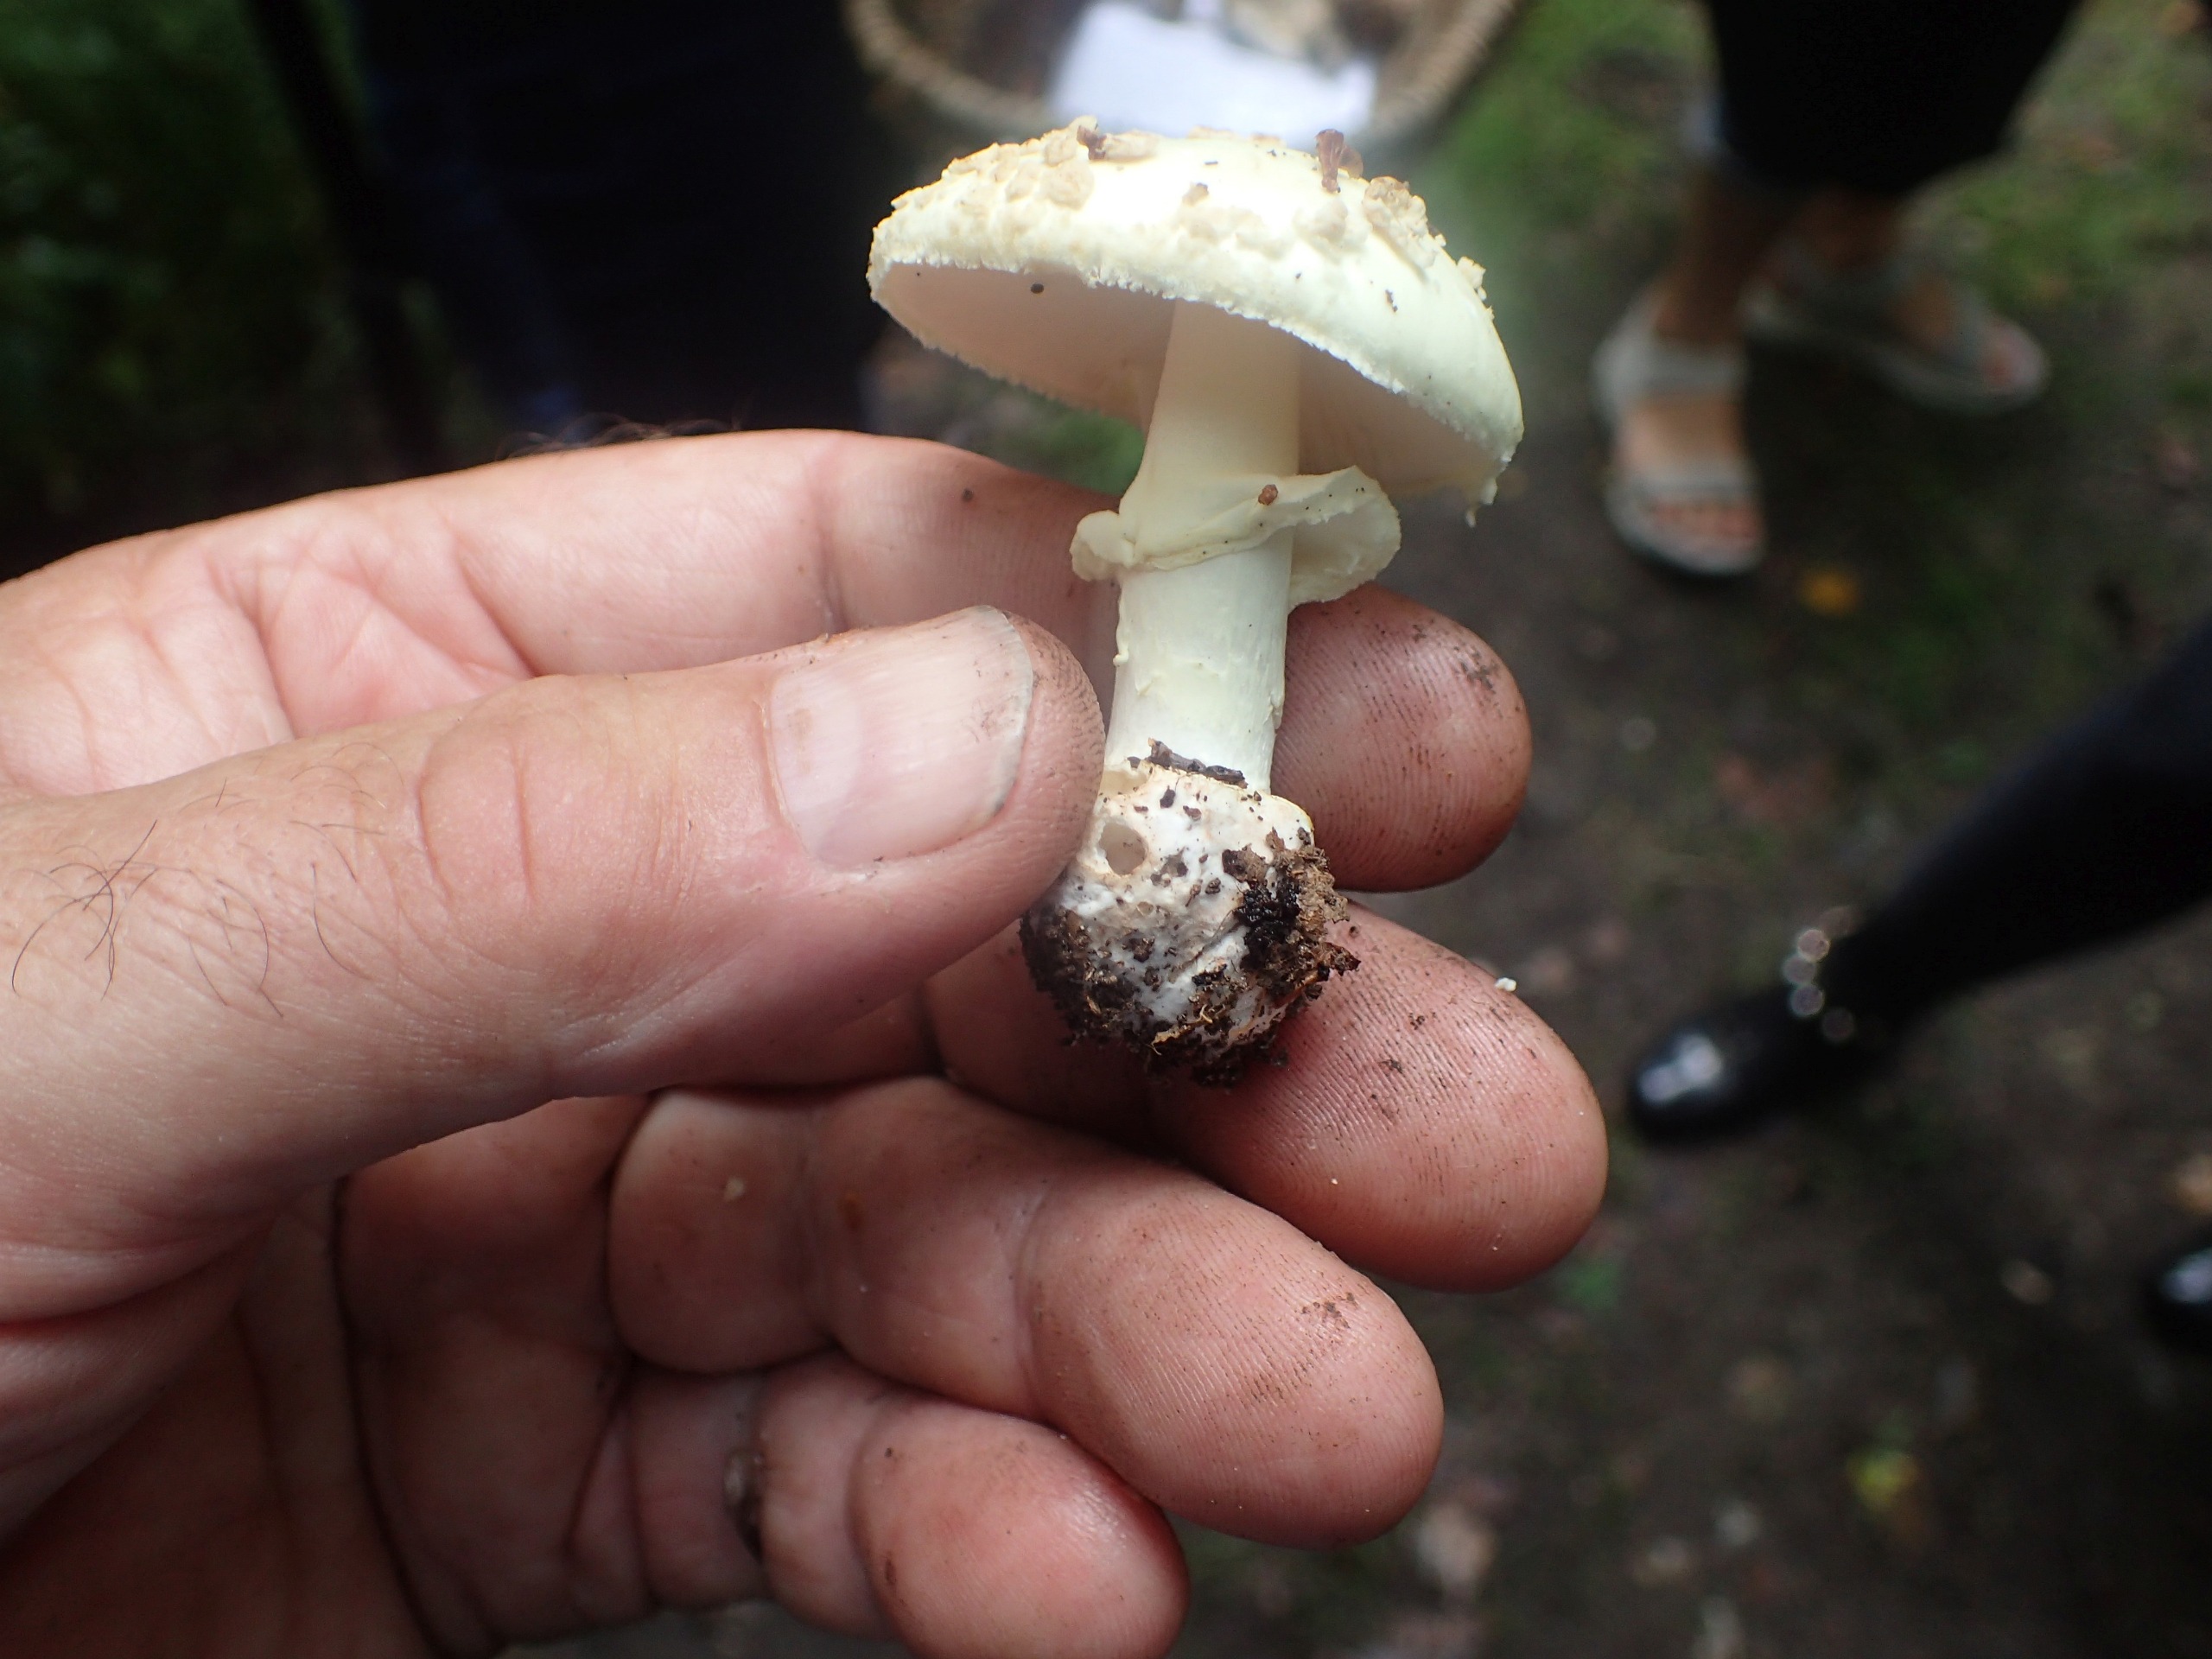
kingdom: Fungi
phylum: Basidiomycota
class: Agaricomycetes
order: Agaricales
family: Amanitaceae
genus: Amanita
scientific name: Amanita citrina
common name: Kugleknoldet fluesvamp
